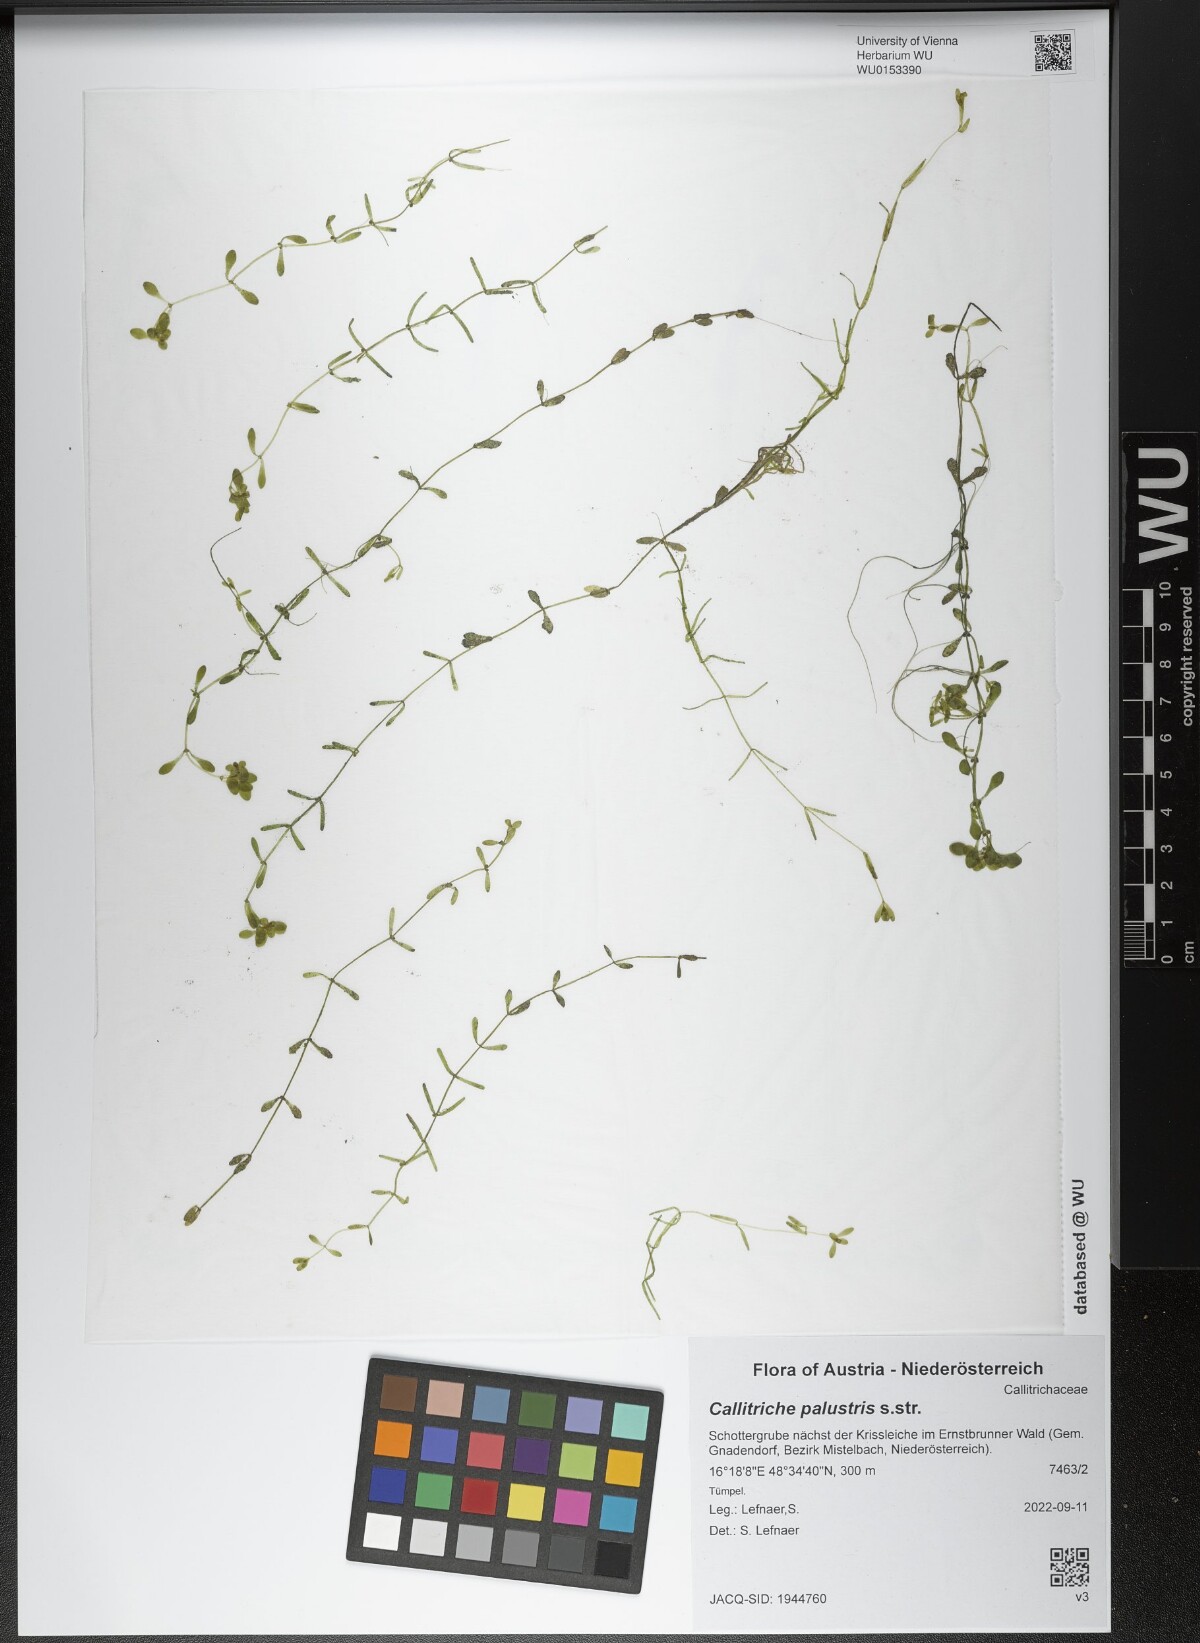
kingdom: Plantae
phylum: Tracheophyta
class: Magnoliopsida
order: Lamiales
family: Plantaginaceae
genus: Callitriche
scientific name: Callitriche palustris
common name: Spring water-starwort
